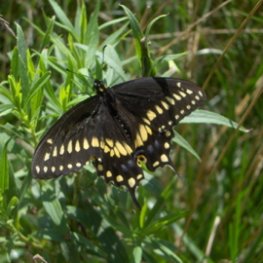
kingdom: Animalia
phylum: Arthropoda
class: Insecta
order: Lepidoptera
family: Papilionidae
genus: Papilio
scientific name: Papilio polyxenes
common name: Black Swallowtail
